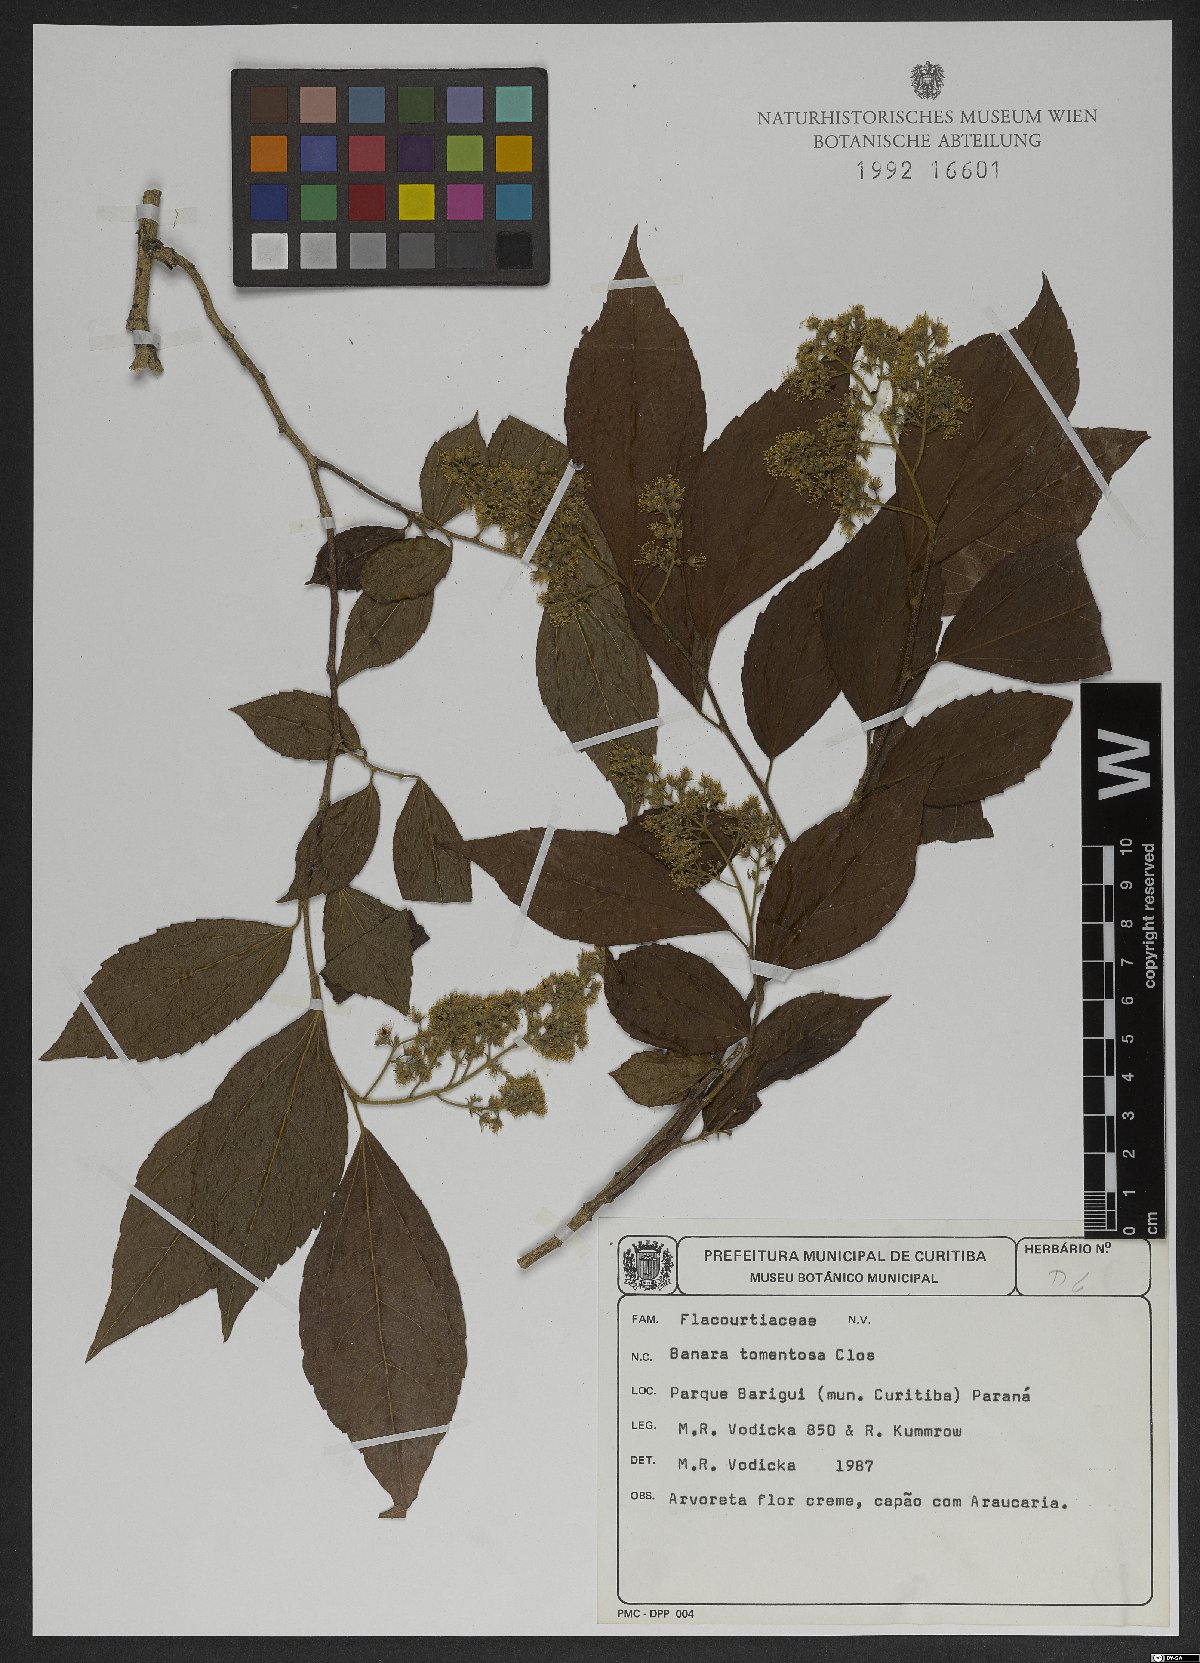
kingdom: Plantae
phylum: Tracheophyta
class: Magnoliopsida
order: Malpighiales
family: Salicaceae
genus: Banara
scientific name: Banara tomentosa
